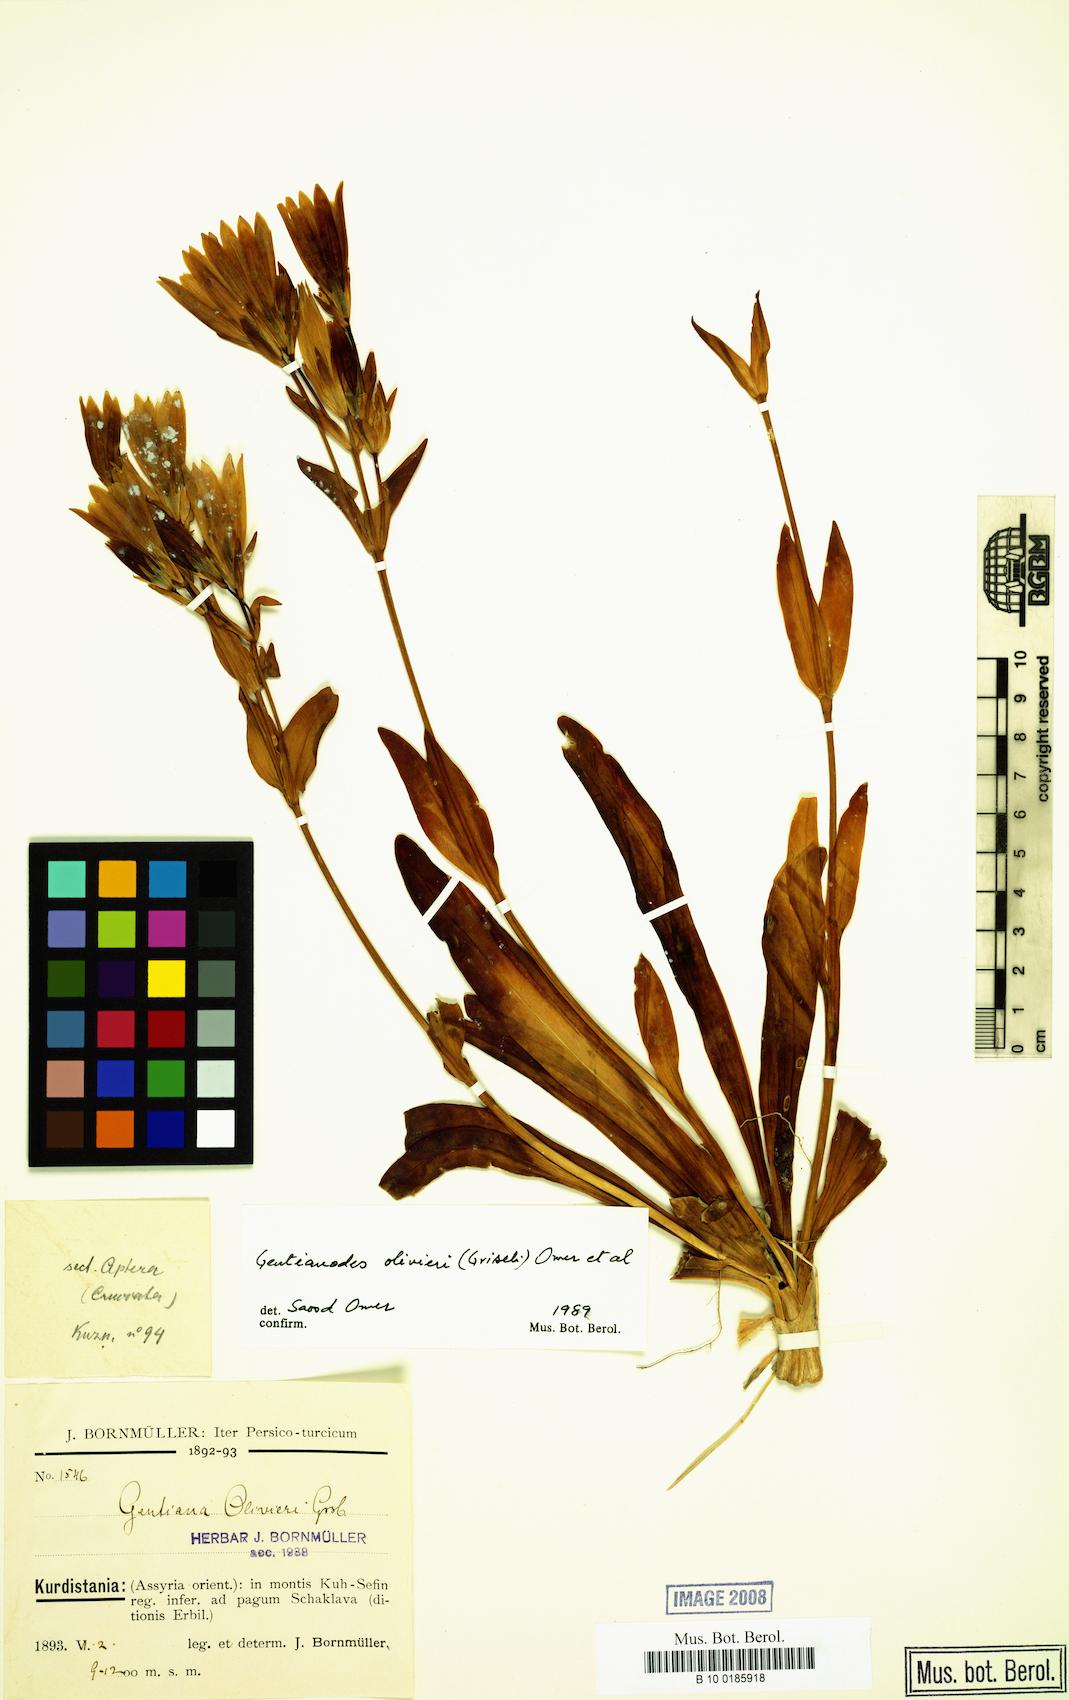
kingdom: Plantae
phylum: Tracheophyta
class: Magnoliopsida
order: Gentianales
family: Gentianaceae
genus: Gentiana
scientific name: Gentiana olivieri
